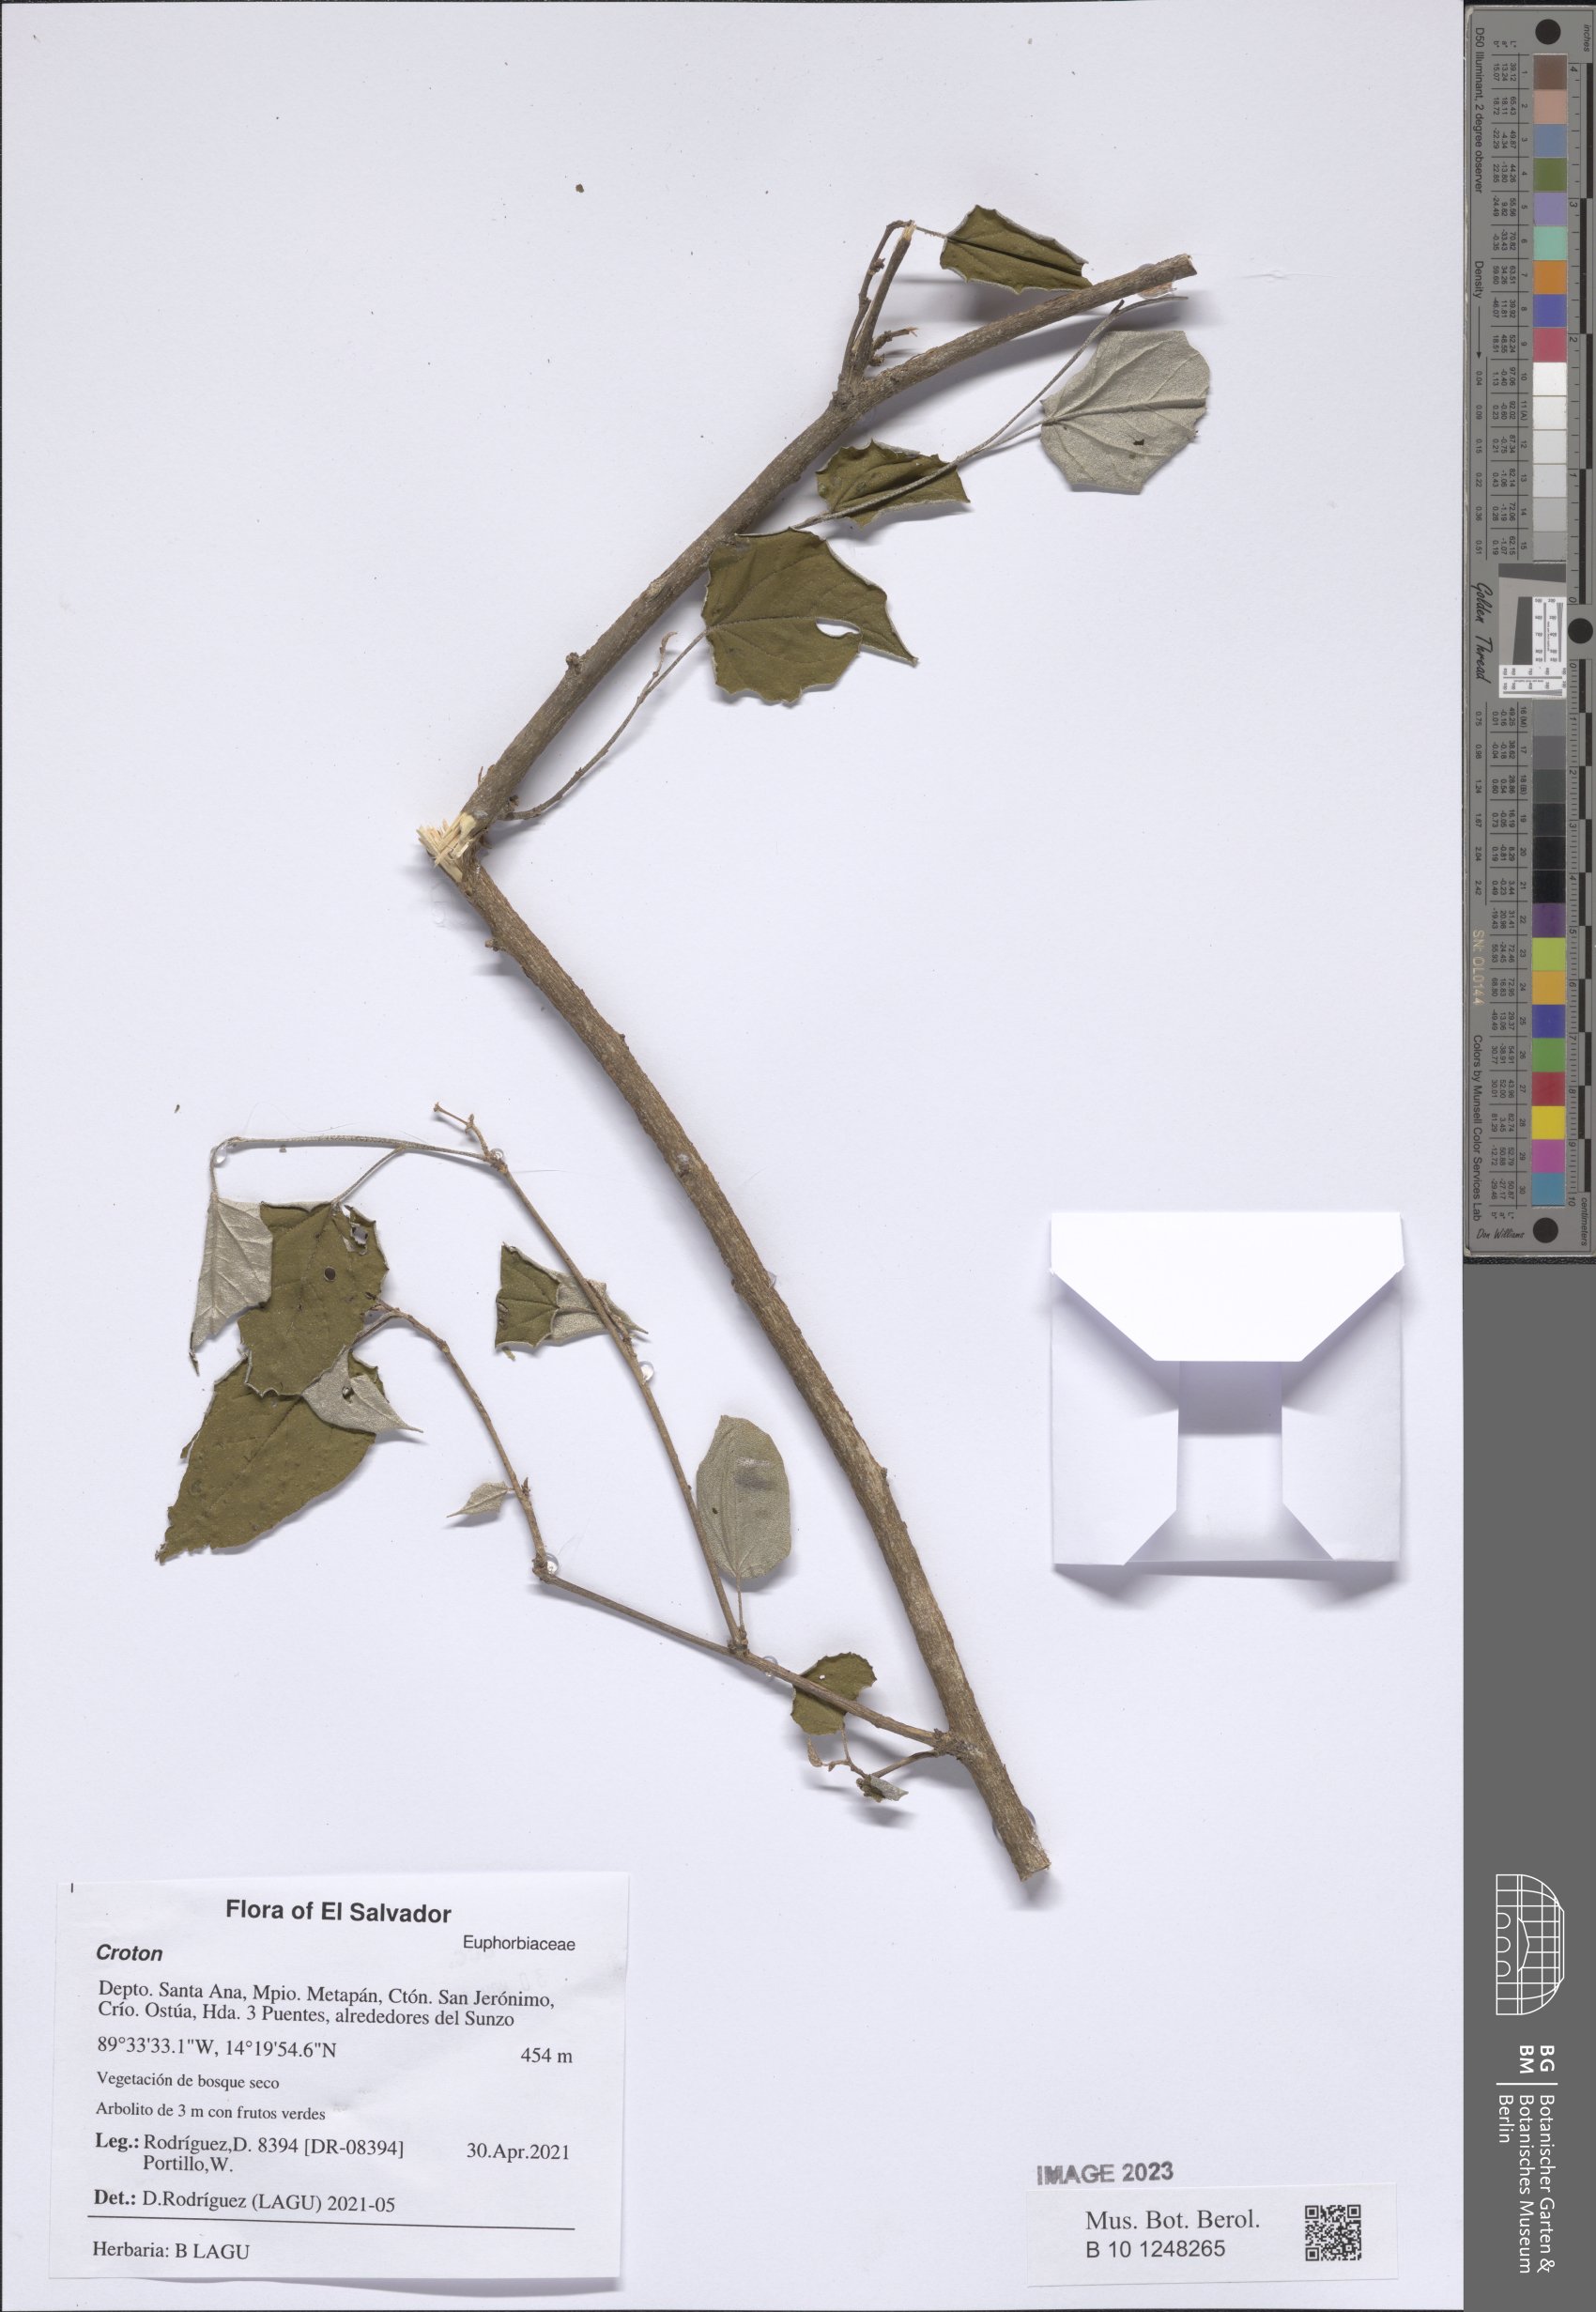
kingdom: Plantae
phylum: Tracheophyta
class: Magnoliopsida
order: Malpighiales
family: Euphorbiaceae
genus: Croton
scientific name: Croton
